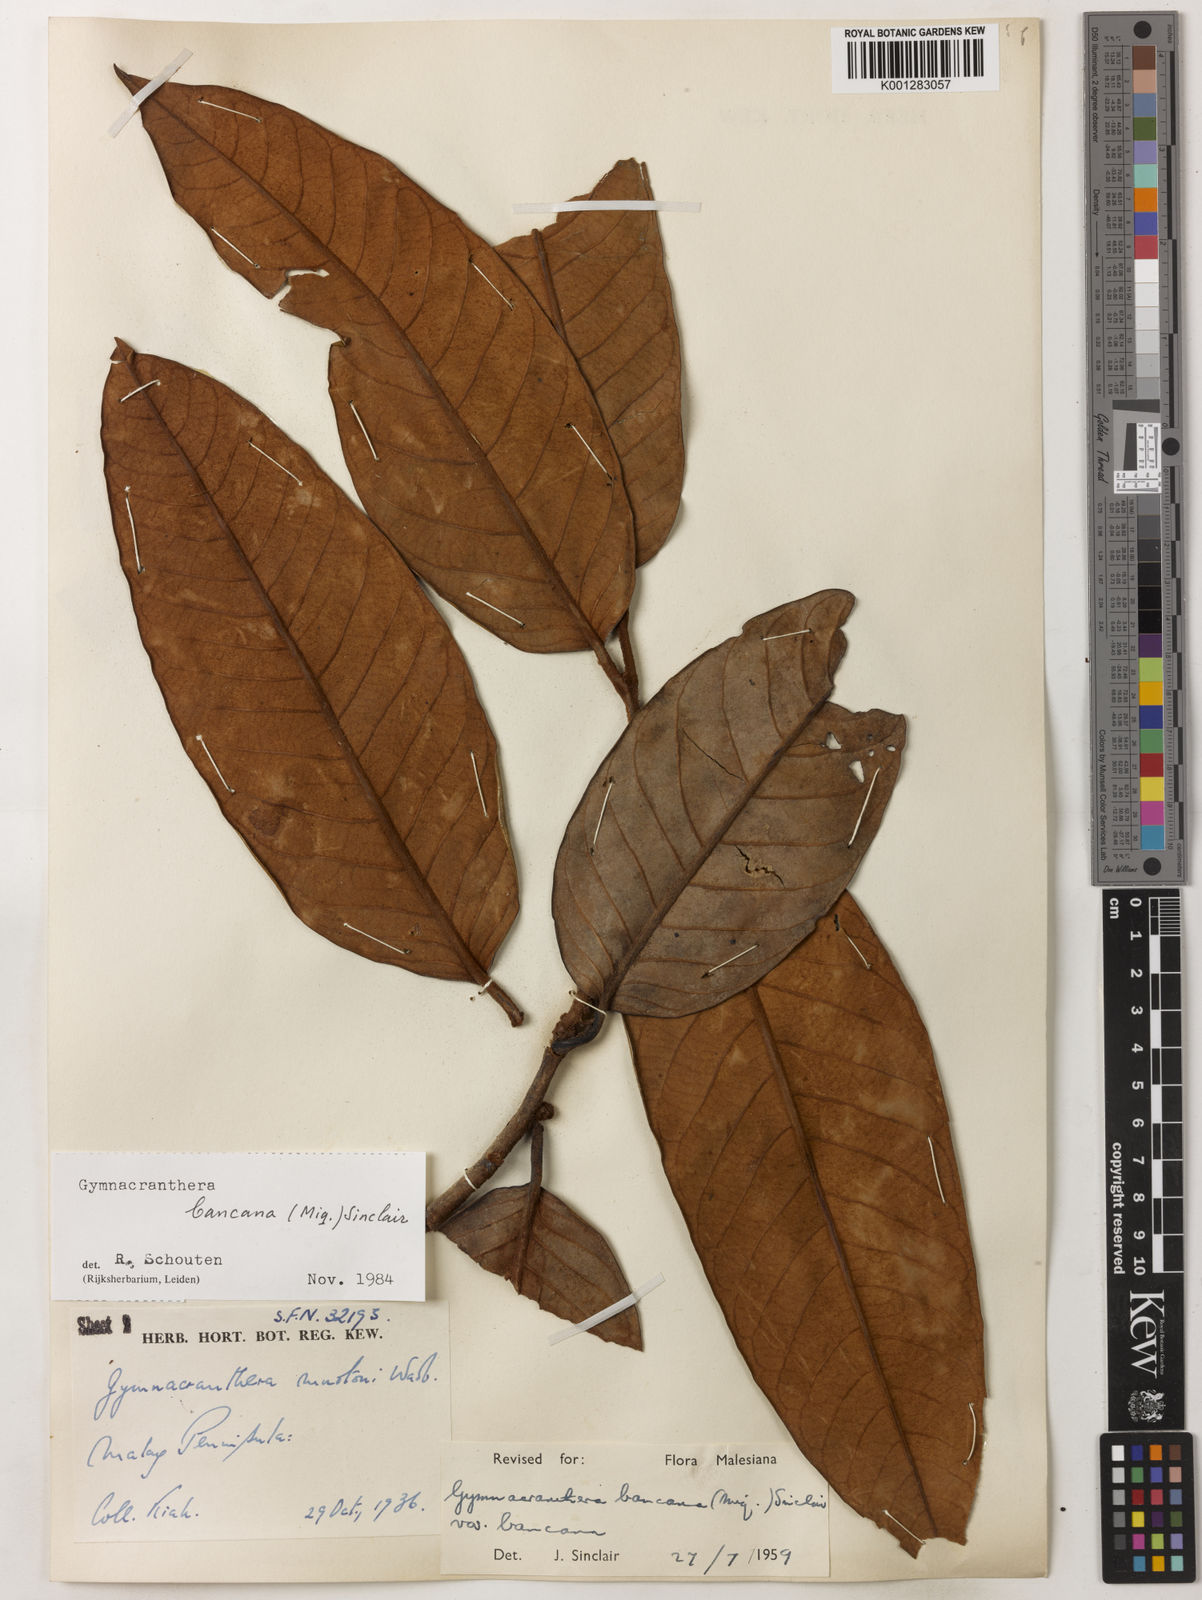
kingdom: Plantae
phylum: Tracheophyta
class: Magnoliopsida
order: Magnoliales
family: Myristicaceae
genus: Gymnacranthera
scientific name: Gymnacranthera bancana
